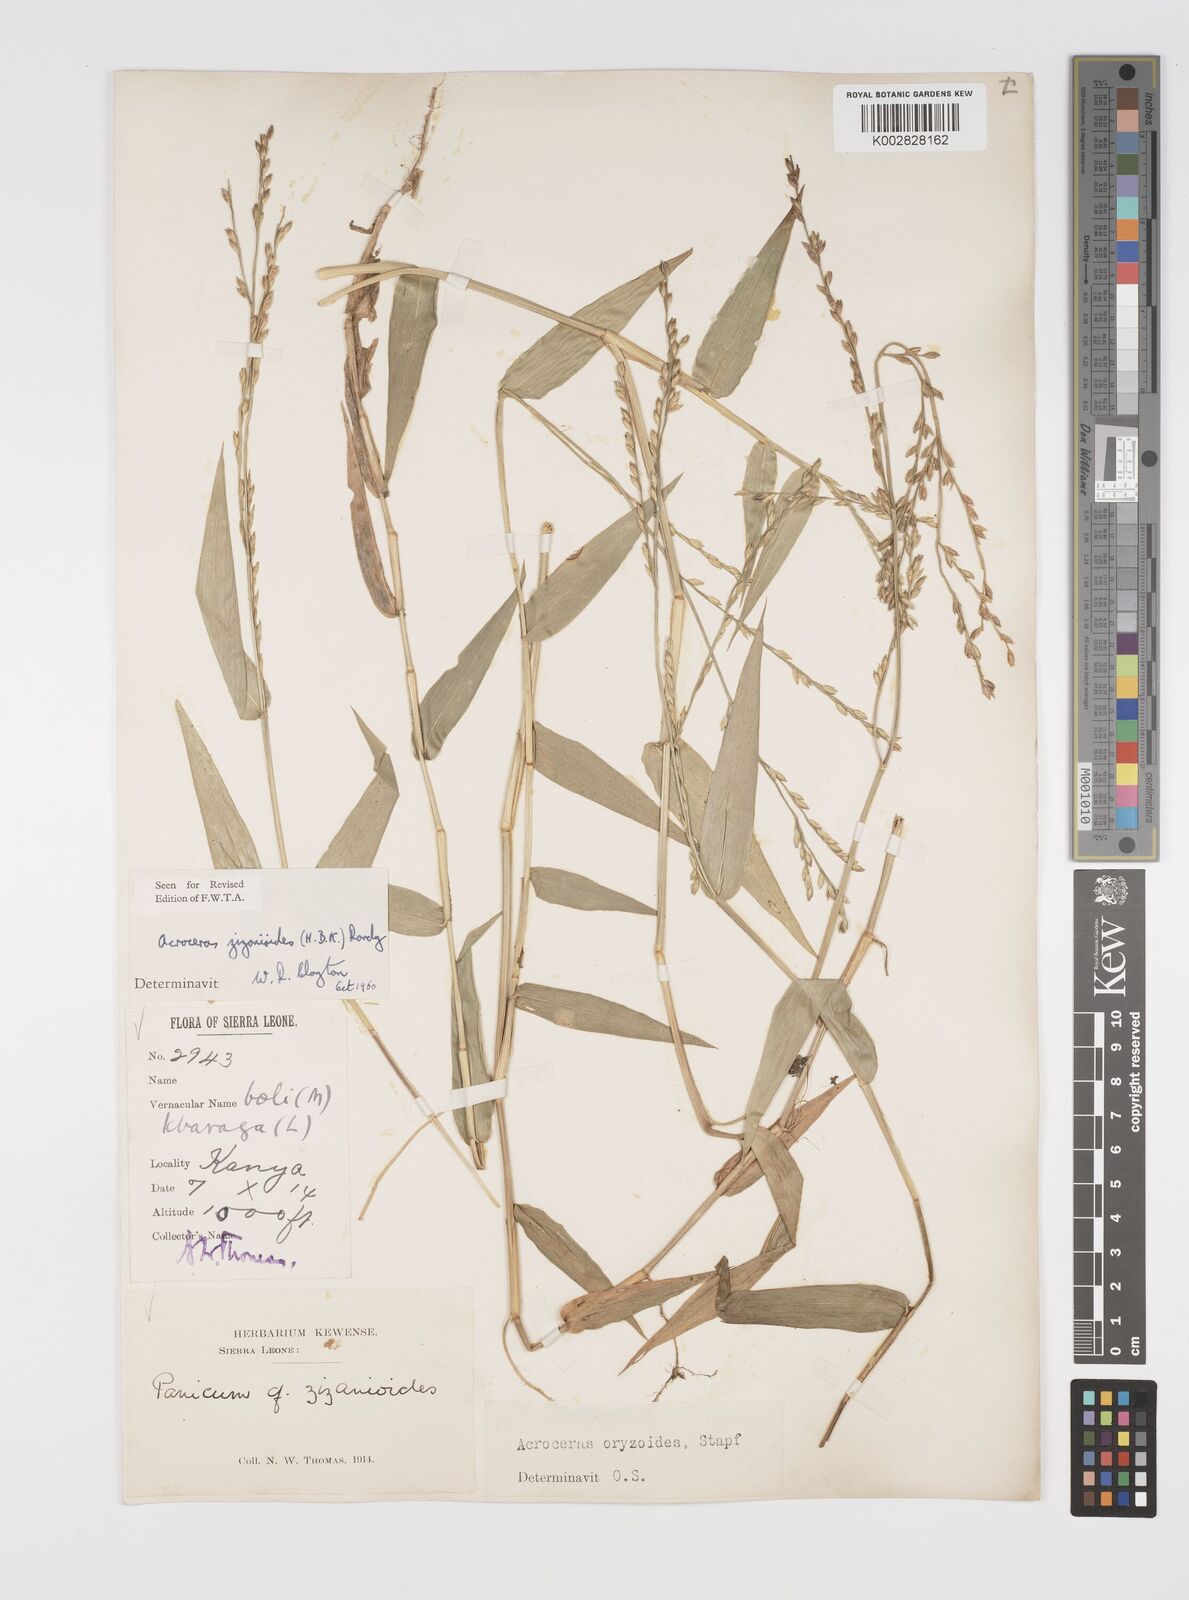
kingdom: Plantae
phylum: Tracheophyta
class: Liliopsida
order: Poales
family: Poaceae
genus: Acroceras
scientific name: Acroceras zizanioides
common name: Oat grass
